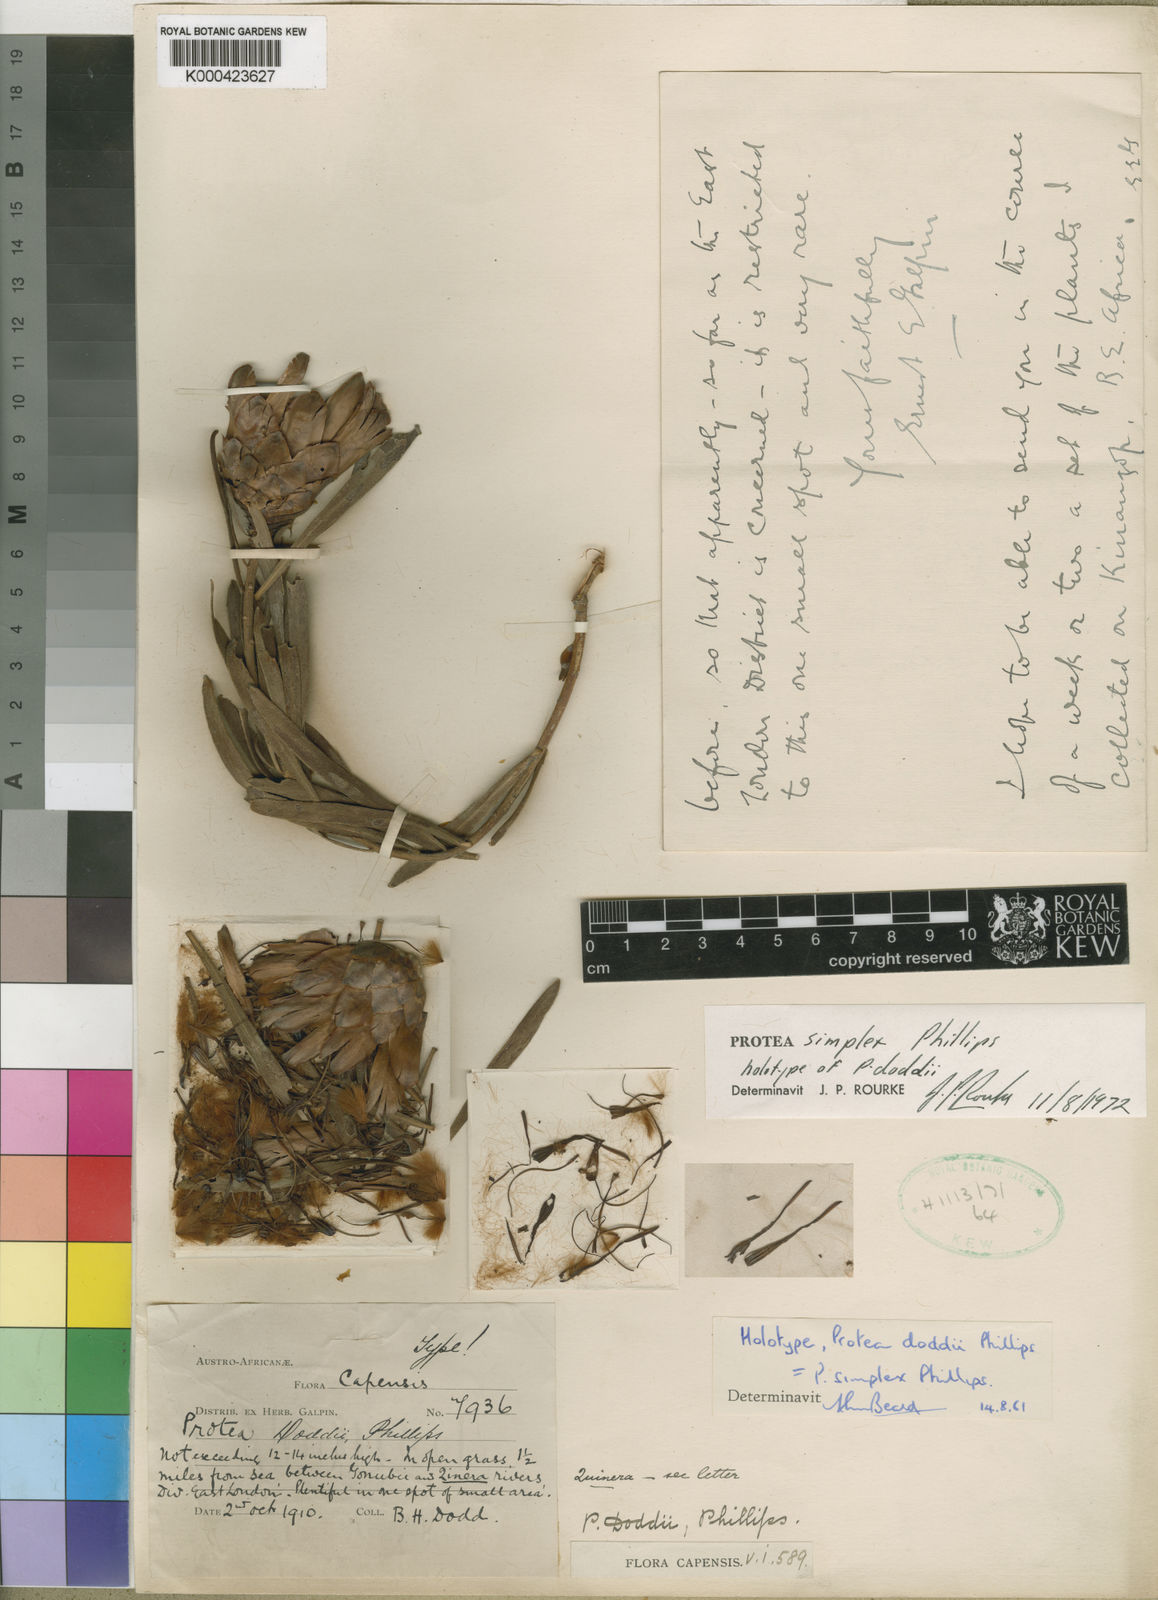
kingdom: Plantae
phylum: Tracheophyta
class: Magnoliopsida
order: Proteales
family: Proteaceae
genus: Protea
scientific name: Protea simplex
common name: Dwarf grassveld sugarbush
